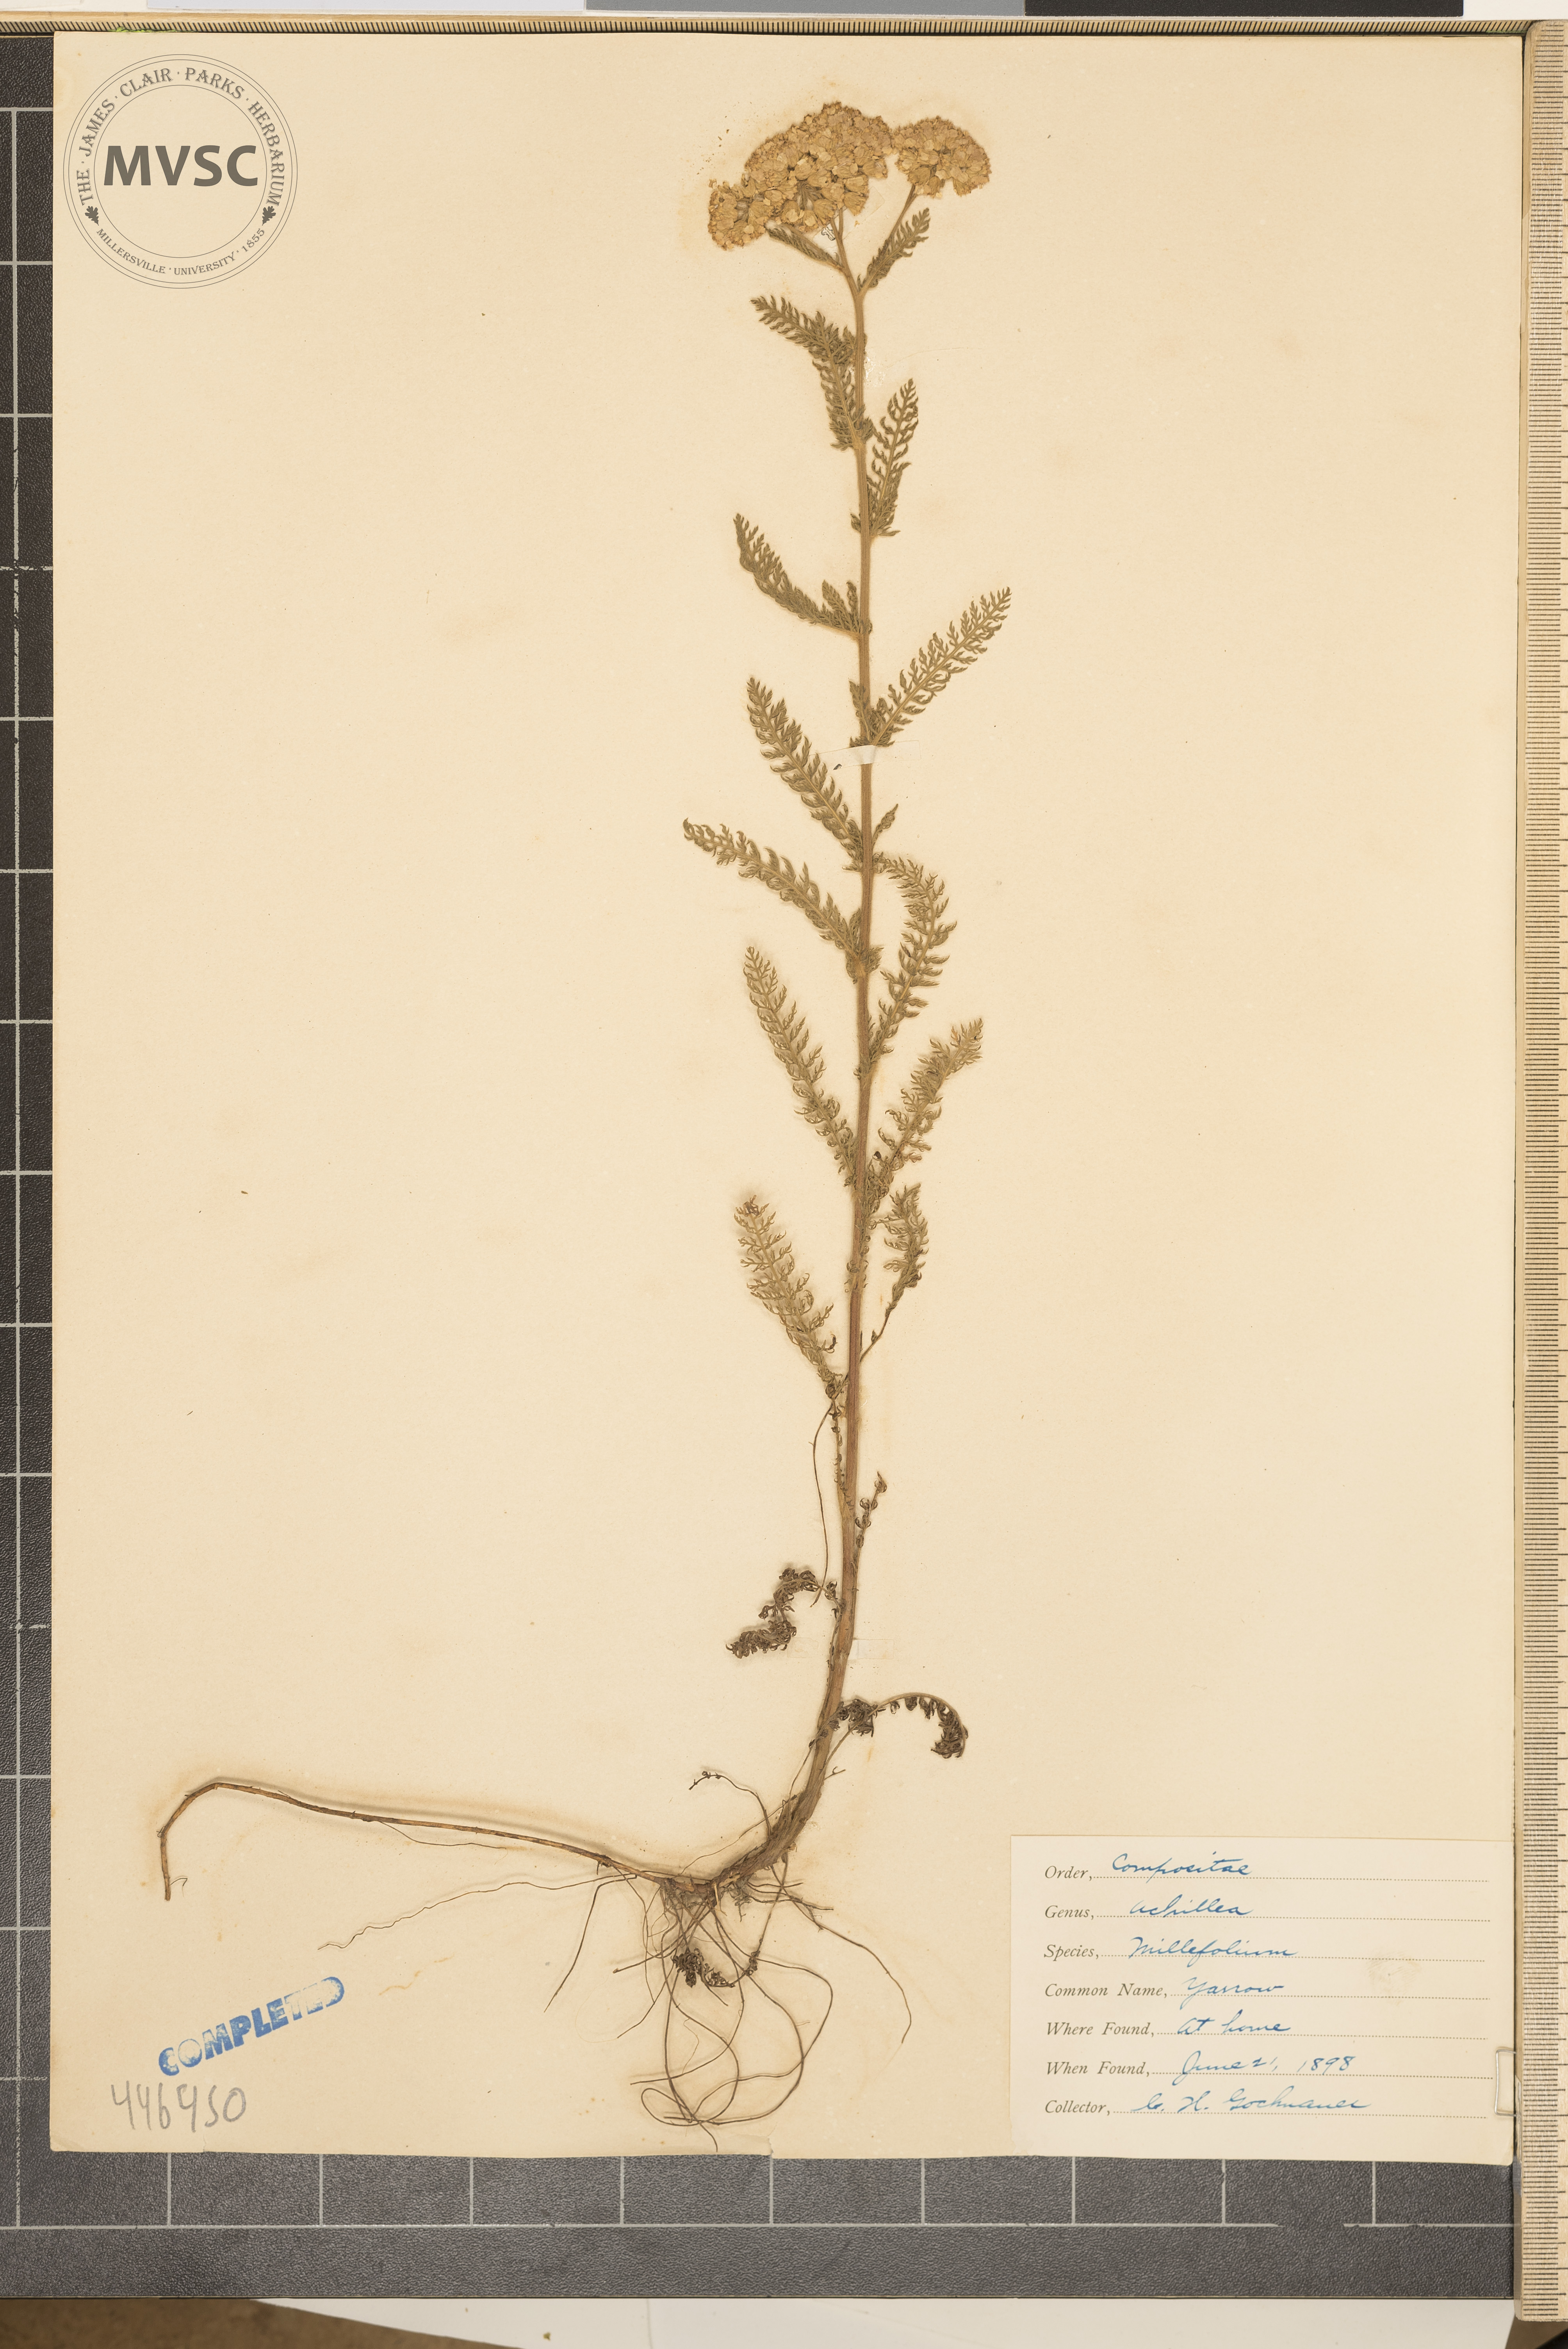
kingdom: Plantae
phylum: Tracheophyta
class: Magnoliopsida
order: Asterales
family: Asteraceae
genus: Achillea
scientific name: Achillea millefolium
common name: Yarrow
